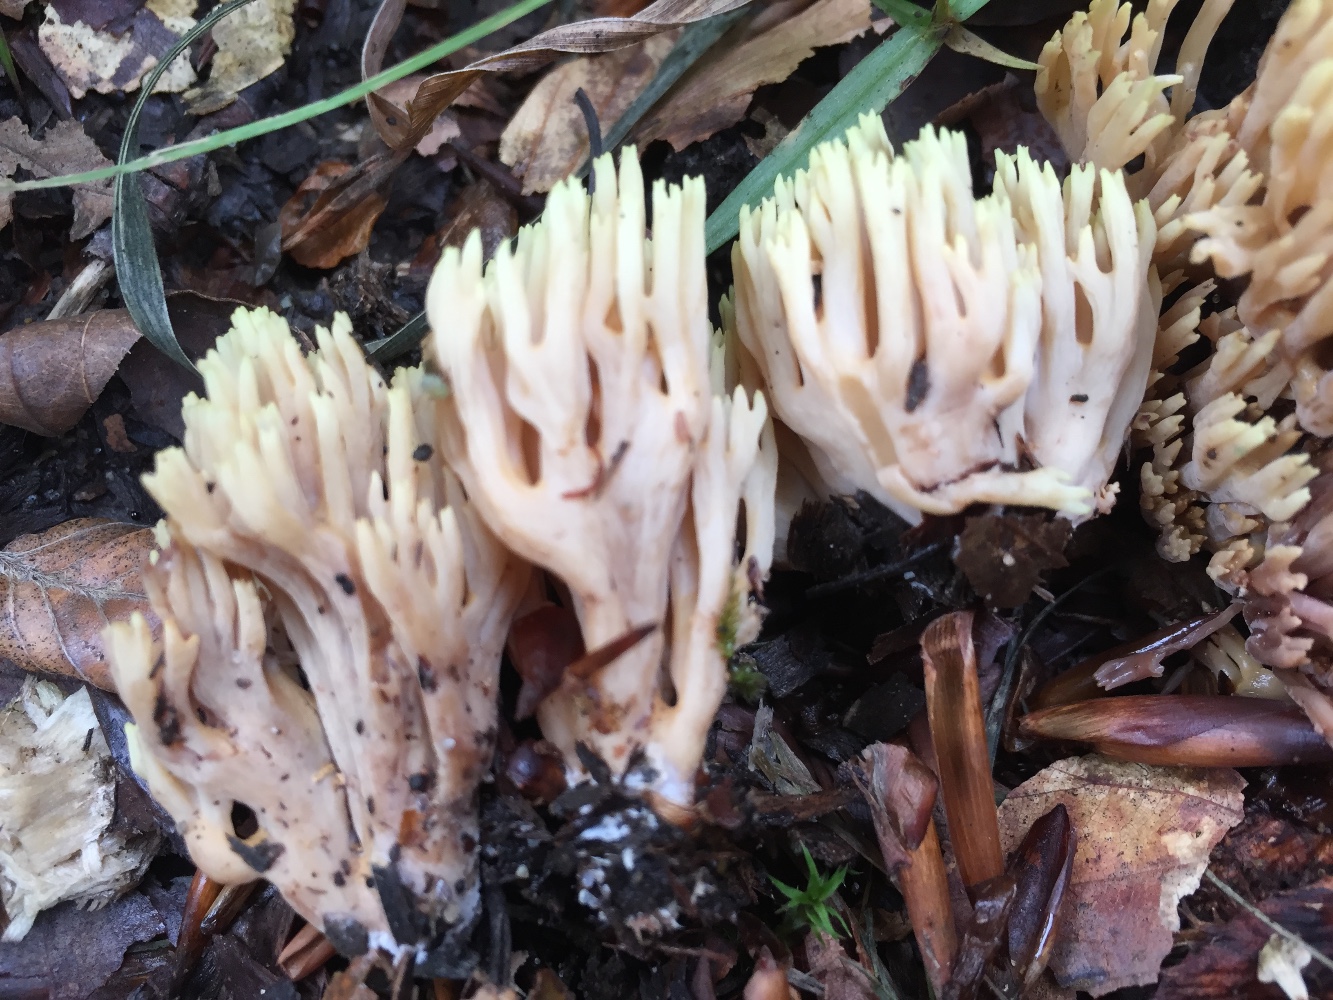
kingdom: Fungi
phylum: Basidiomycota
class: Agaricomycetes
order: Gomphales
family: Gomphaceae
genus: Ramaria
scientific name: Ramaria stricta
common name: rank koralsvamp
